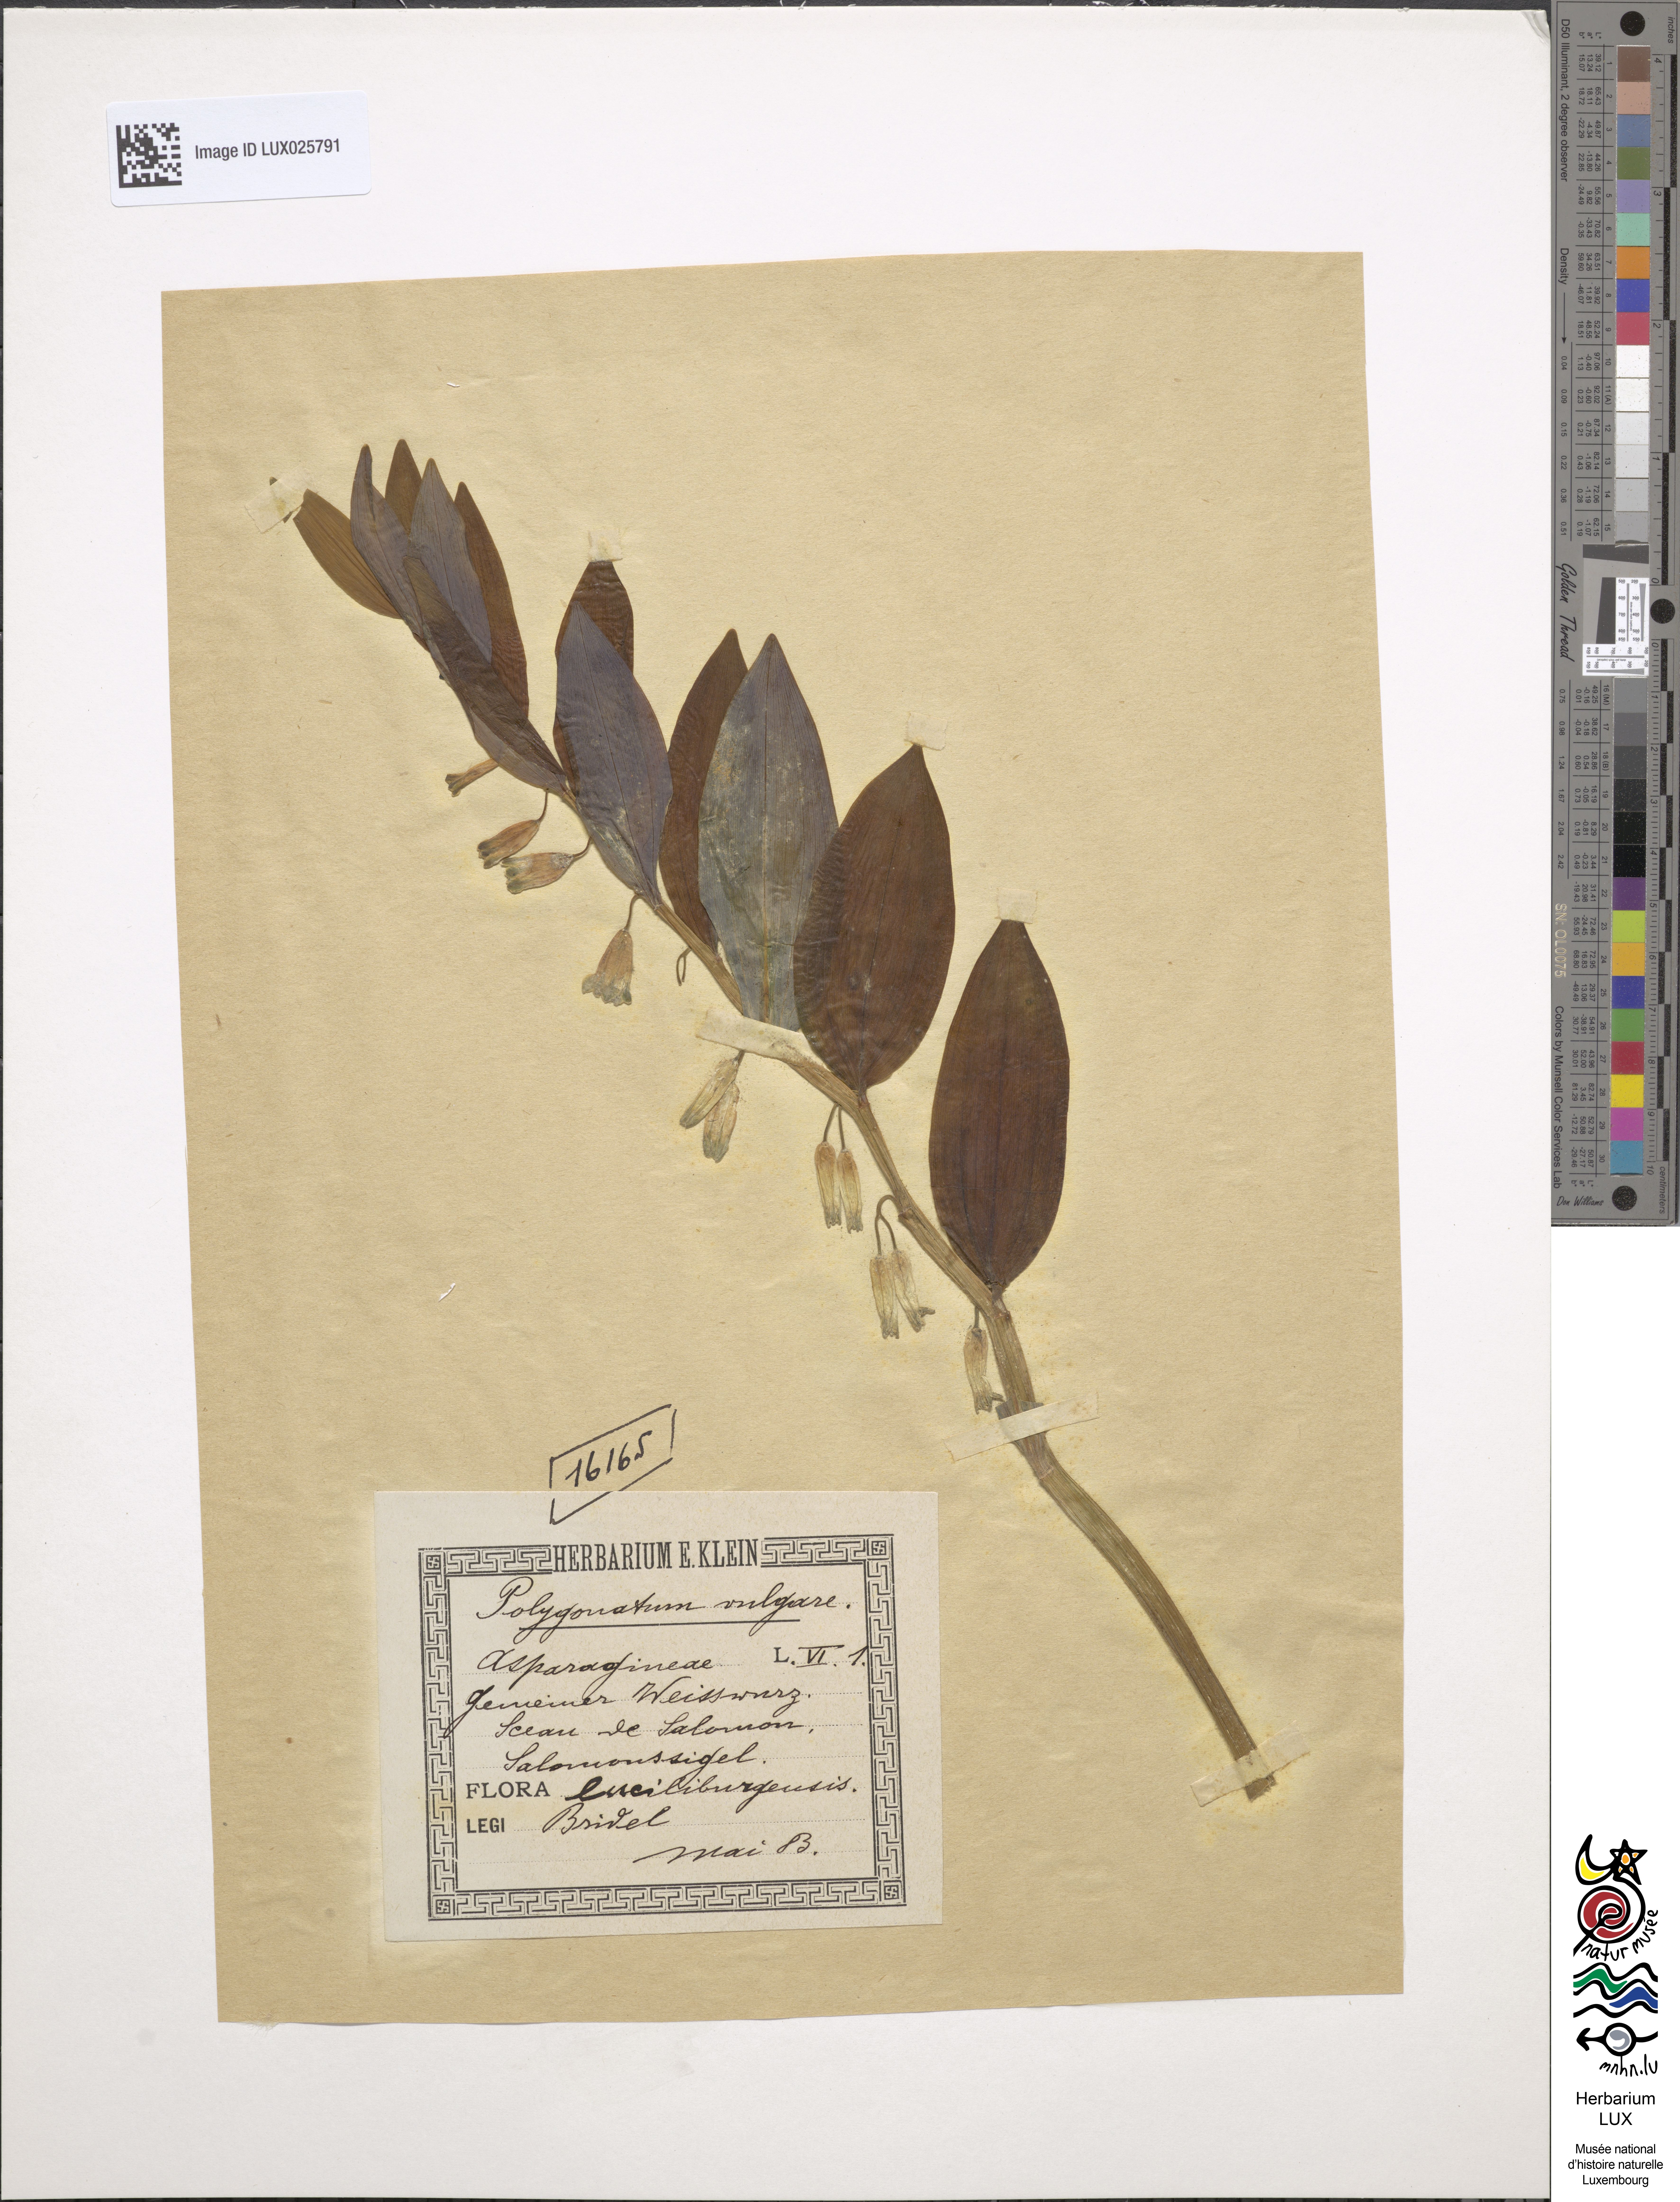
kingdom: Plantae
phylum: Tracheophyta
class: Liliopsida
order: Asparagales
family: Asparagaceae
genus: Polygonatum
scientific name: Polygonatum odoratum
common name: Angular solomon's-seal
